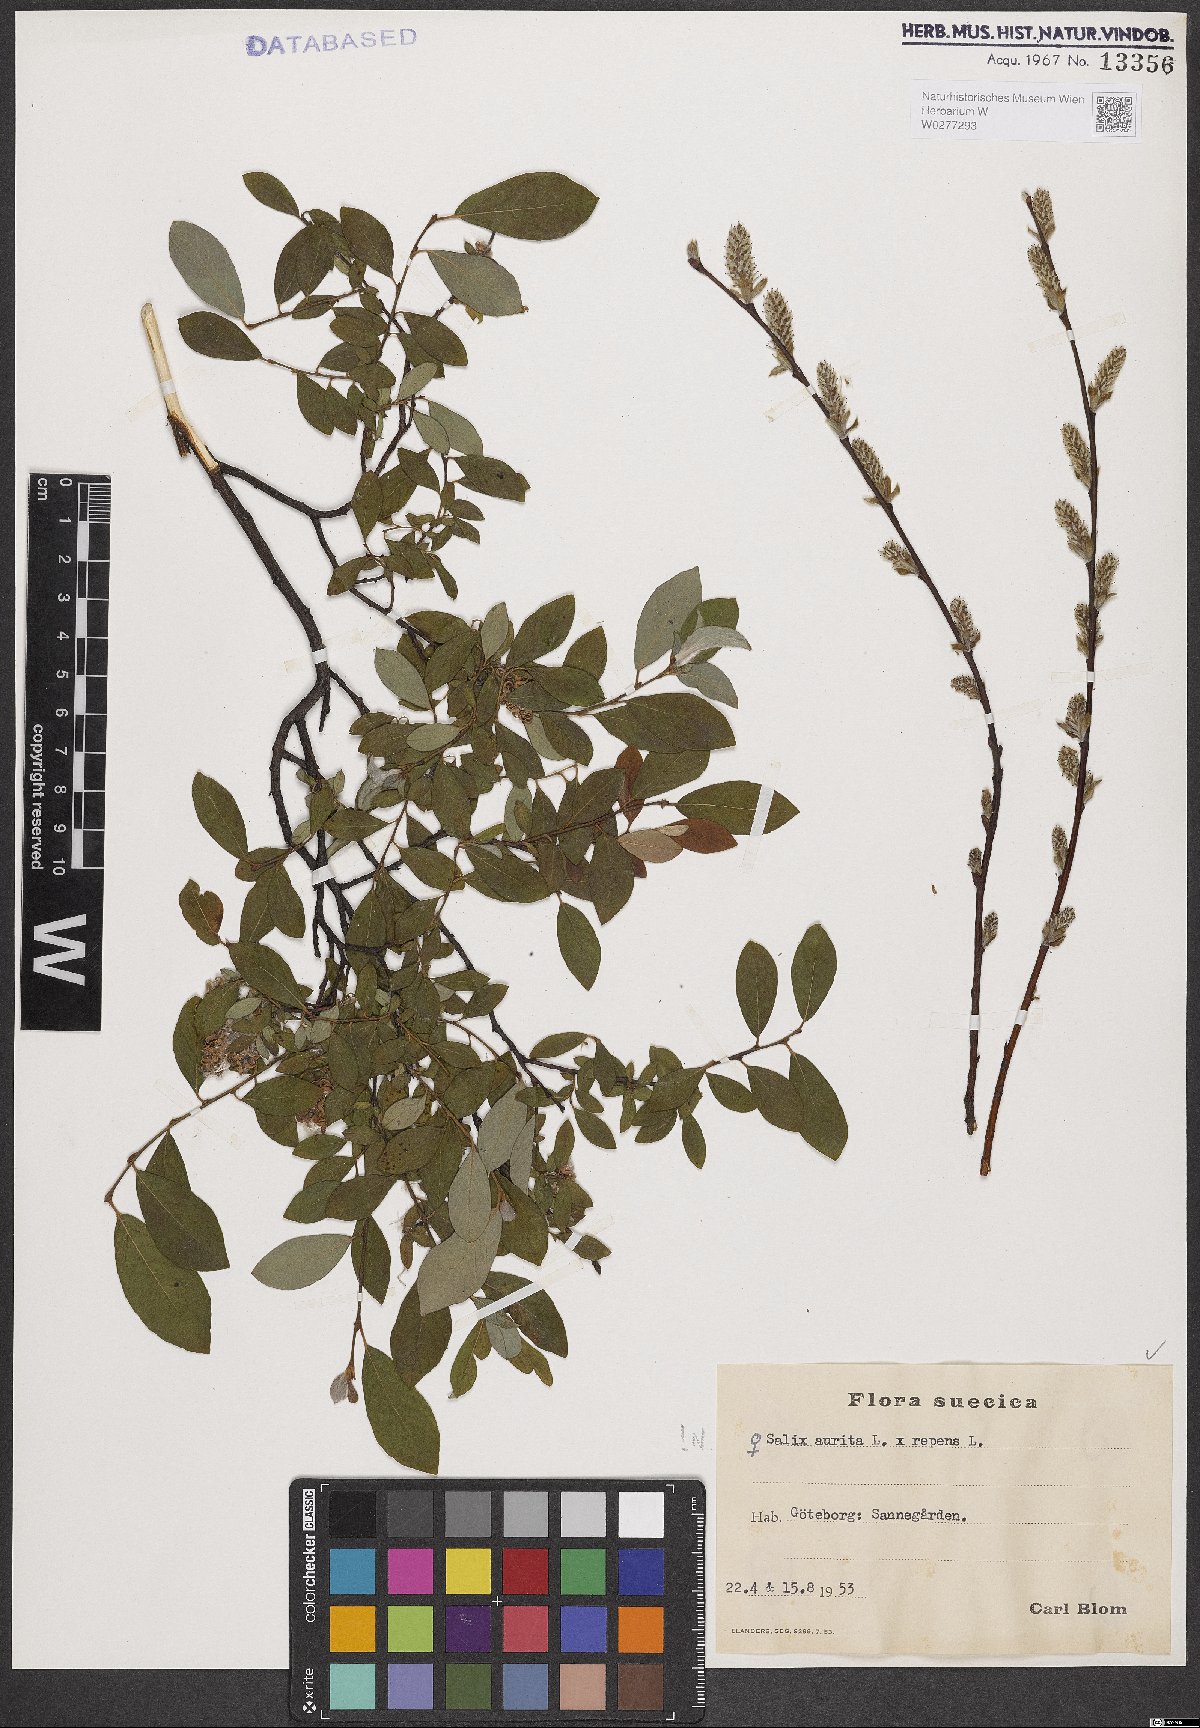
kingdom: Plantae
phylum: Tracheophyta
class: Magnoliopsida
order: Malpighiales
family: Salicaceae
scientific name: Salicaceae
